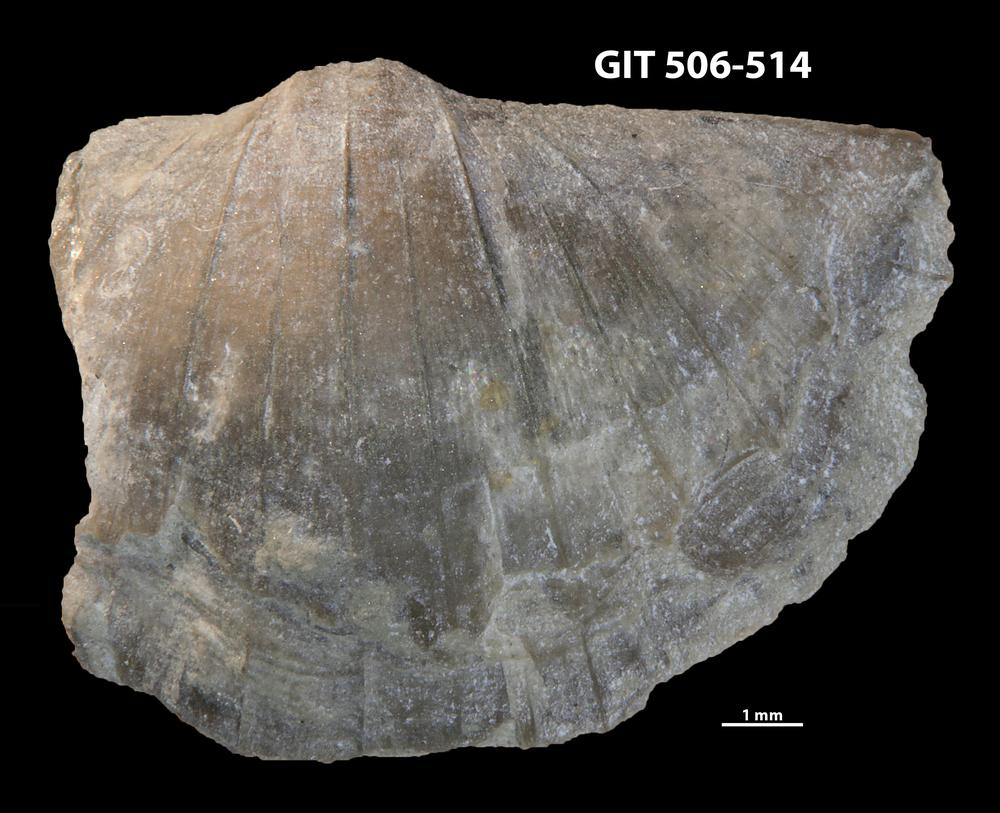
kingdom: Animalia
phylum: Brachiopoda
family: Oldhaminidae
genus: Eoplectodonta
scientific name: Eoplectodonta duvalii
